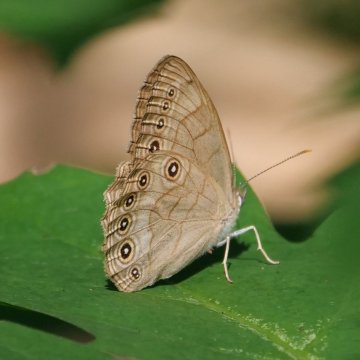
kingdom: Animalia
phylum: Arthropoda
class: Insecta
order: Lepidoptera
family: Nymphalidae
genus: Lethe
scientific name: Lethe eurydice
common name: Appalachian Eyed Brown
